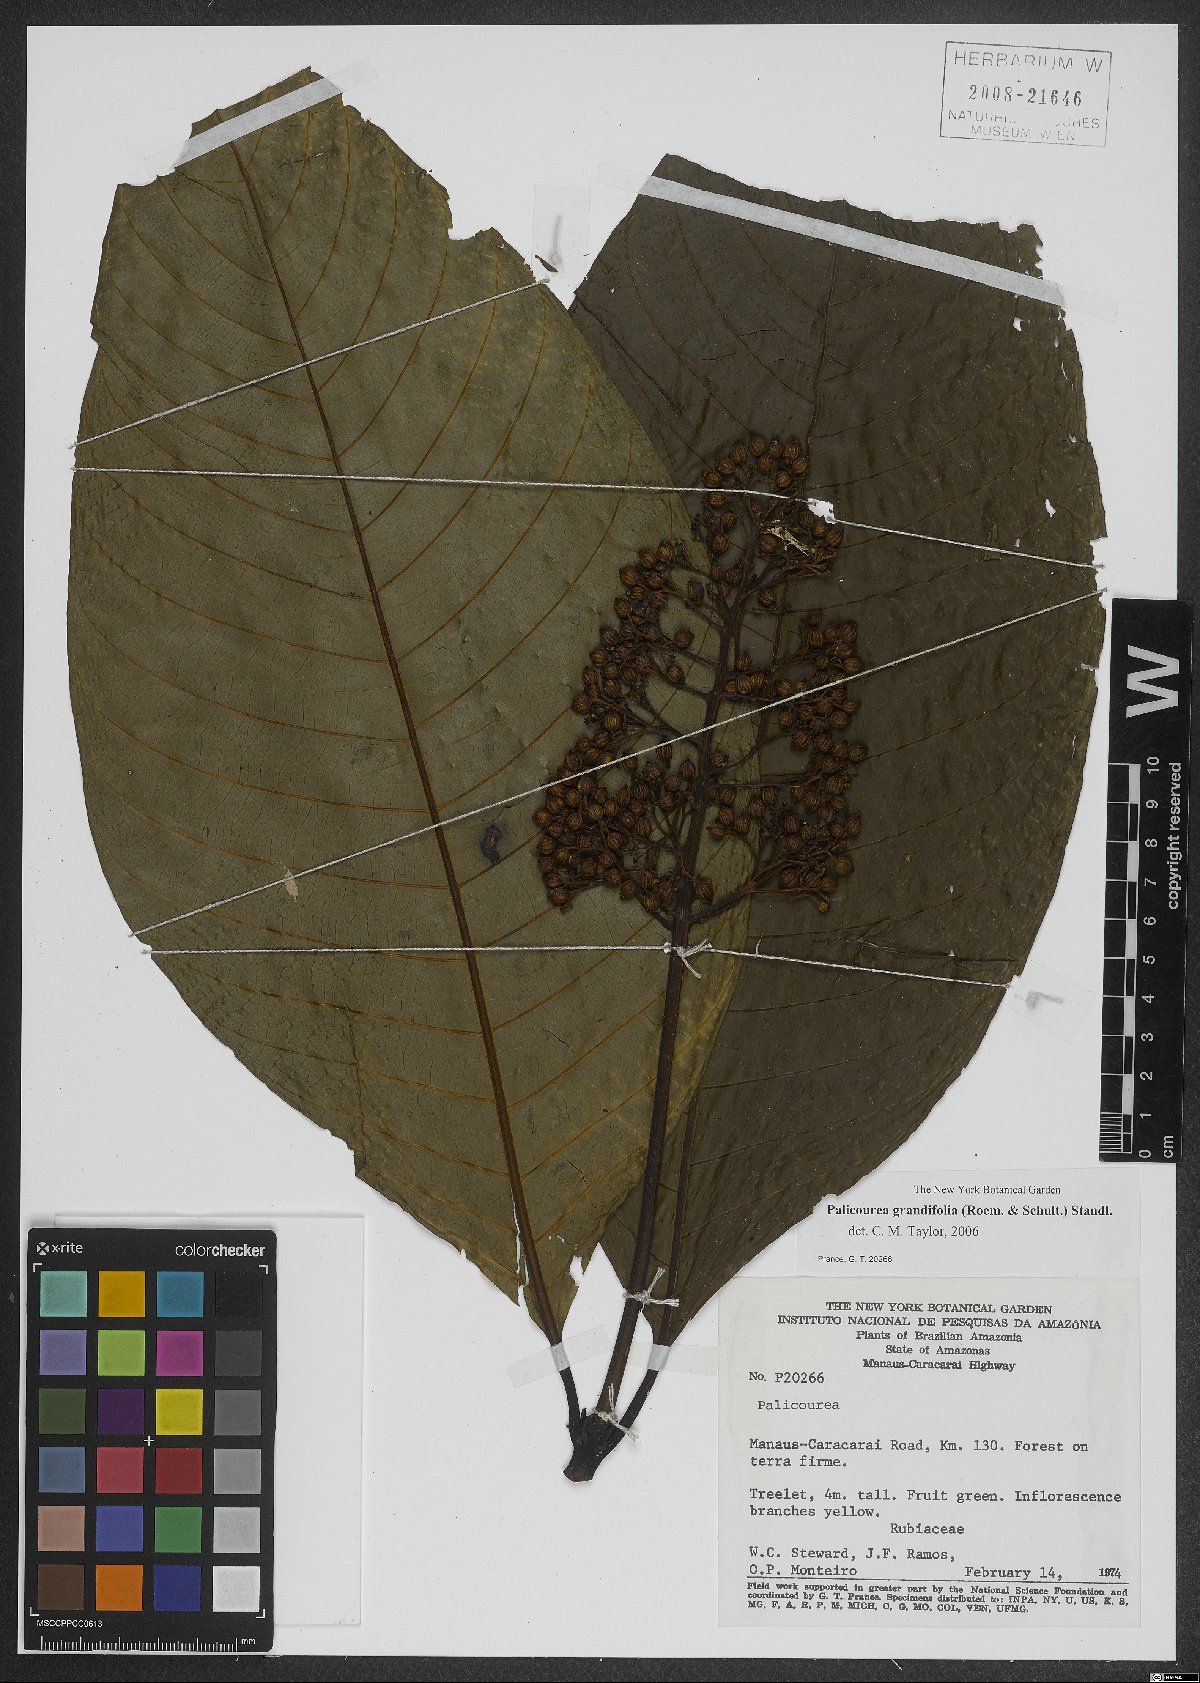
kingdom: Plantae
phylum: Tracheophyta
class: Magnoliopsida
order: Gentianales
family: Rubiaceae
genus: Palicourea
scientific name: Palicourea grandifolia
